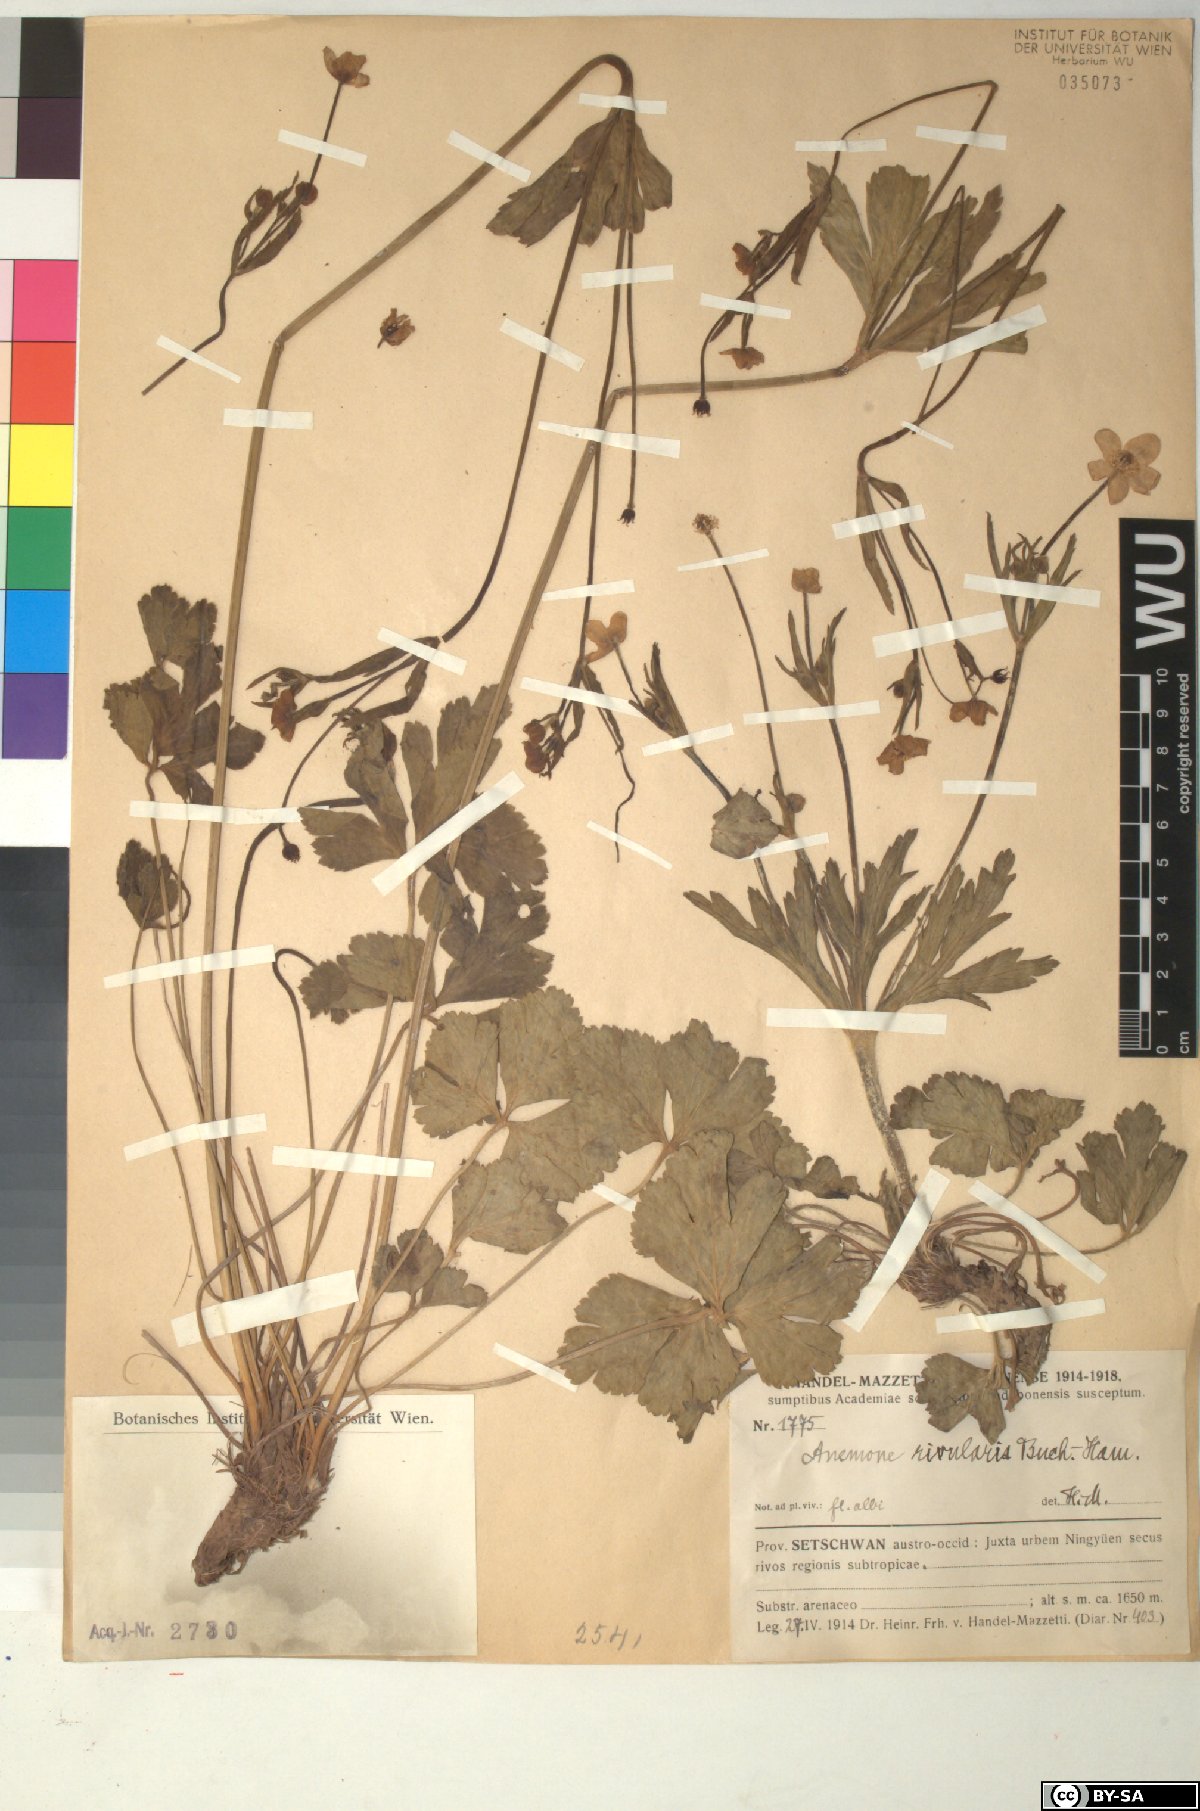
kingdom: Plantae
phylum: Tracheophyta
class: Magnoliopsida
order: Ranunculales
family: Ranunculaceae
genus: Eriocapitella
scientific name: Eriocapitella rivularis
